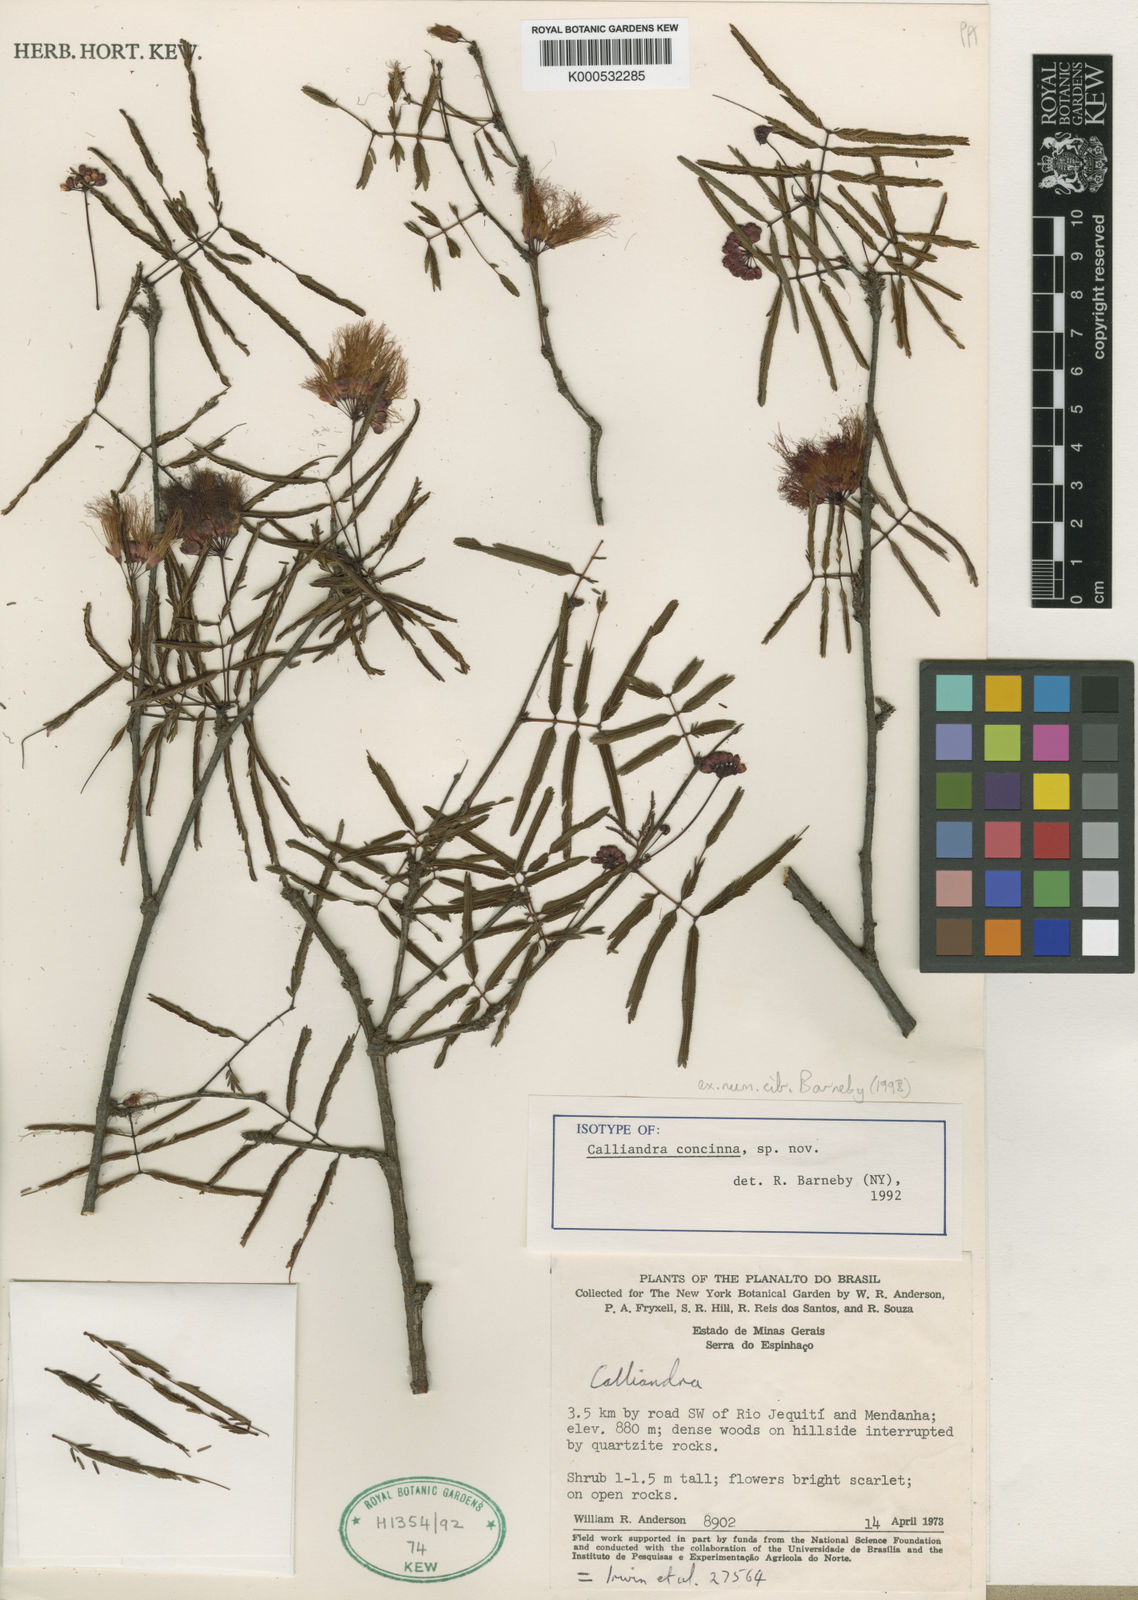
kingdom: Plantae
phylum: Tracheophyta
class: Magnoliopsida
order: Fabales
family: Fabaceae
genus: Calliandra
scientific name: Calliandra concinna
